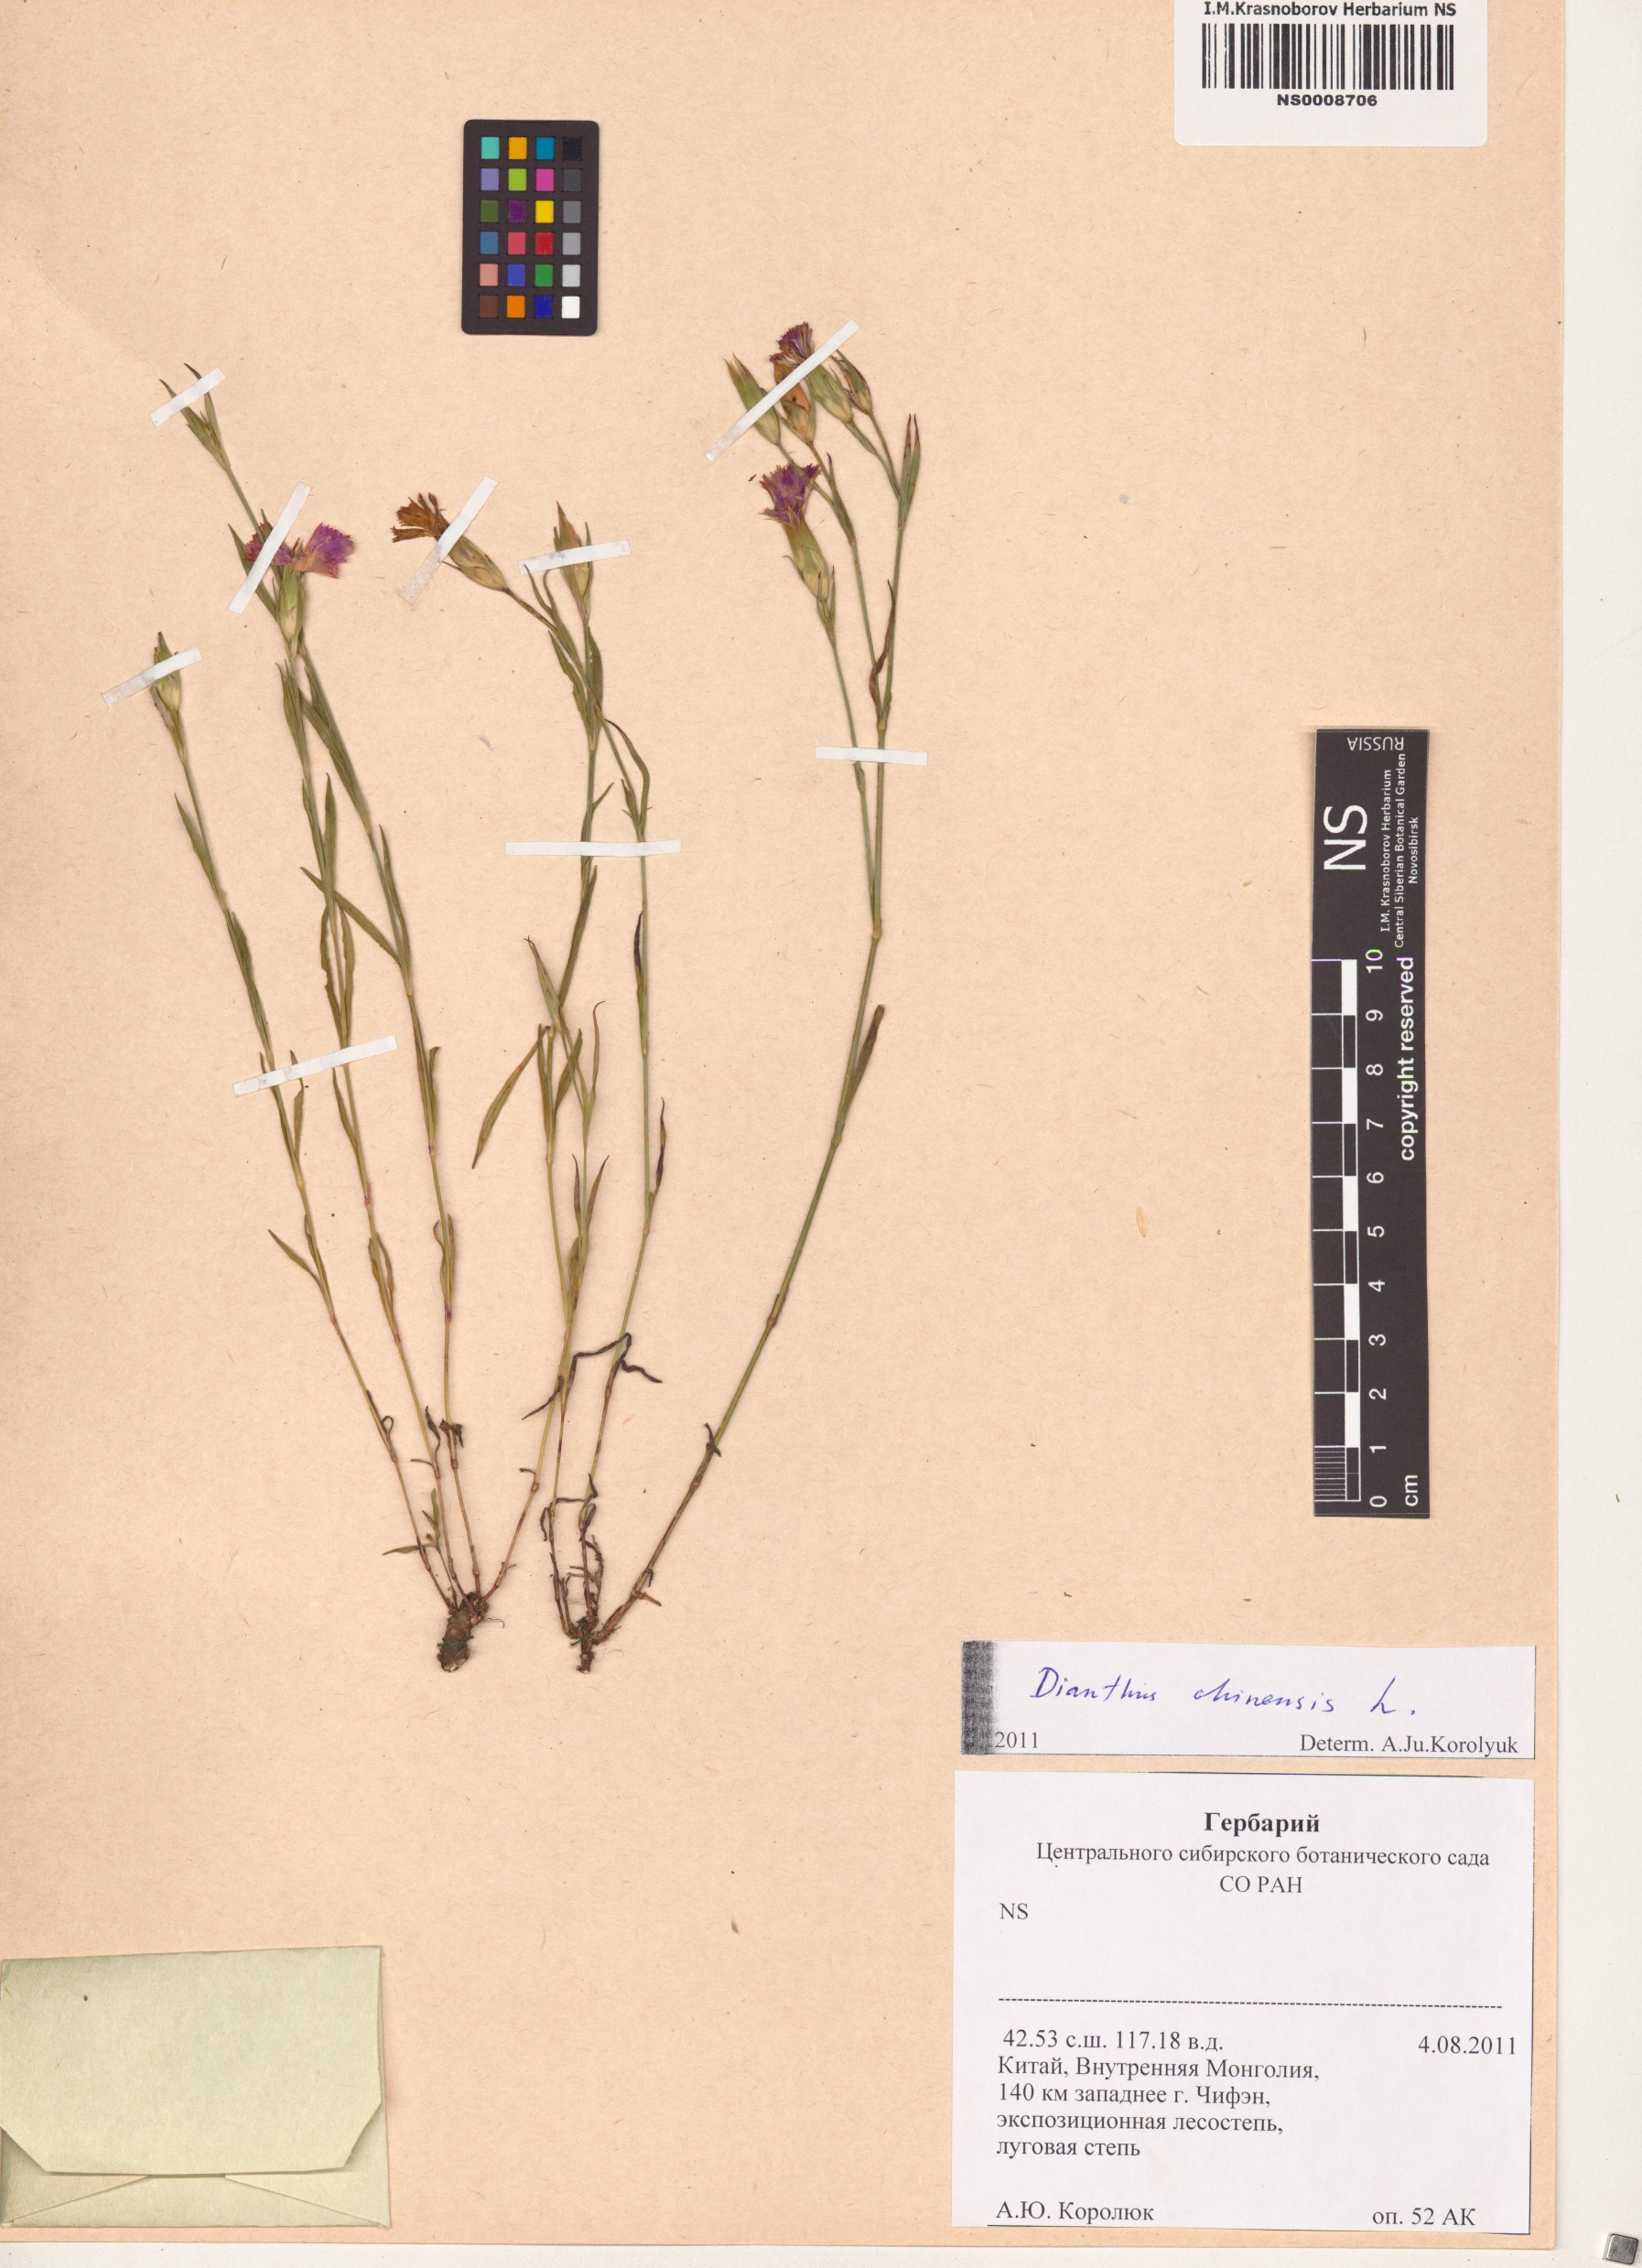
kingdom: Plantae
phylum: Tracheophyta
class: Magnoliopsida
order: Caryophyllales
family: Caryophyllaceae
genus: Dianthus
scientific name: Dianthus chinensis
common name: Rainbow pink
